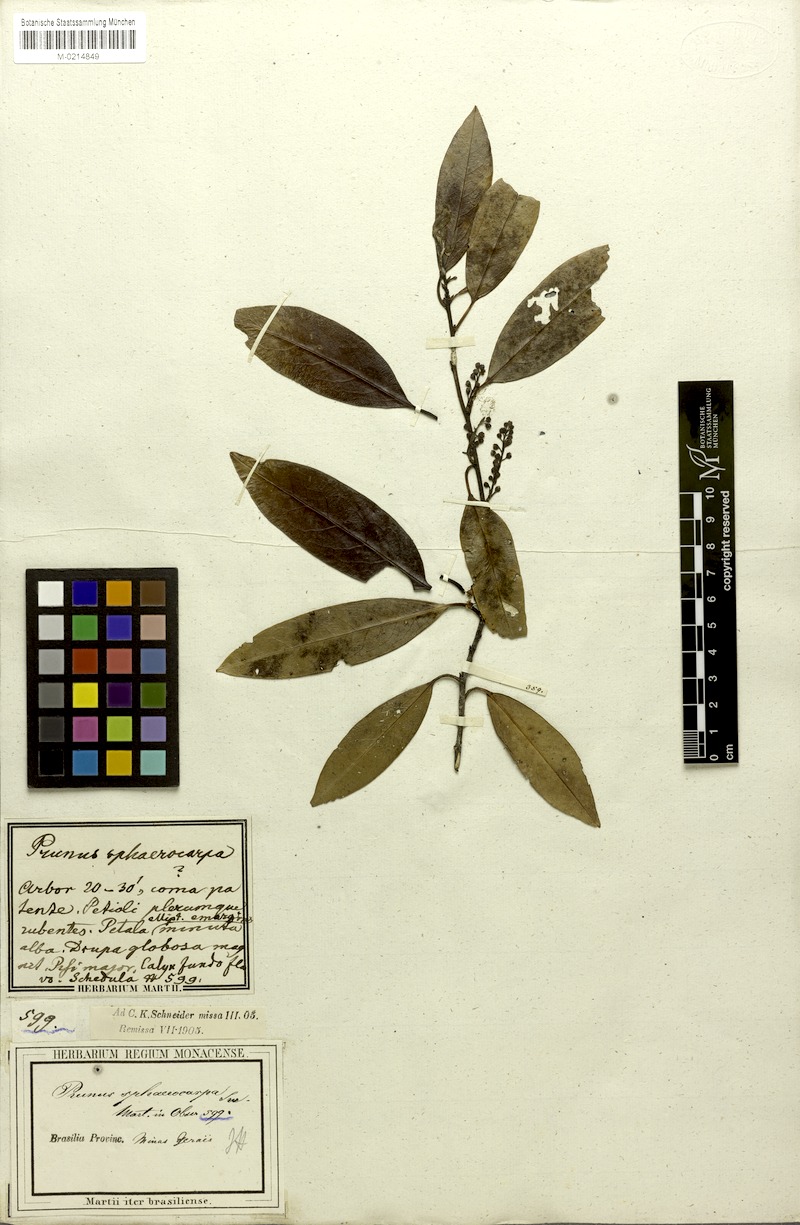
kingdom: Plantae
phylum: Tracheophyta
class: Magnoliopsida
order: Rosales
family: Rosaceae
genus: Prunus
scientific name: Prunus brasiliensis
